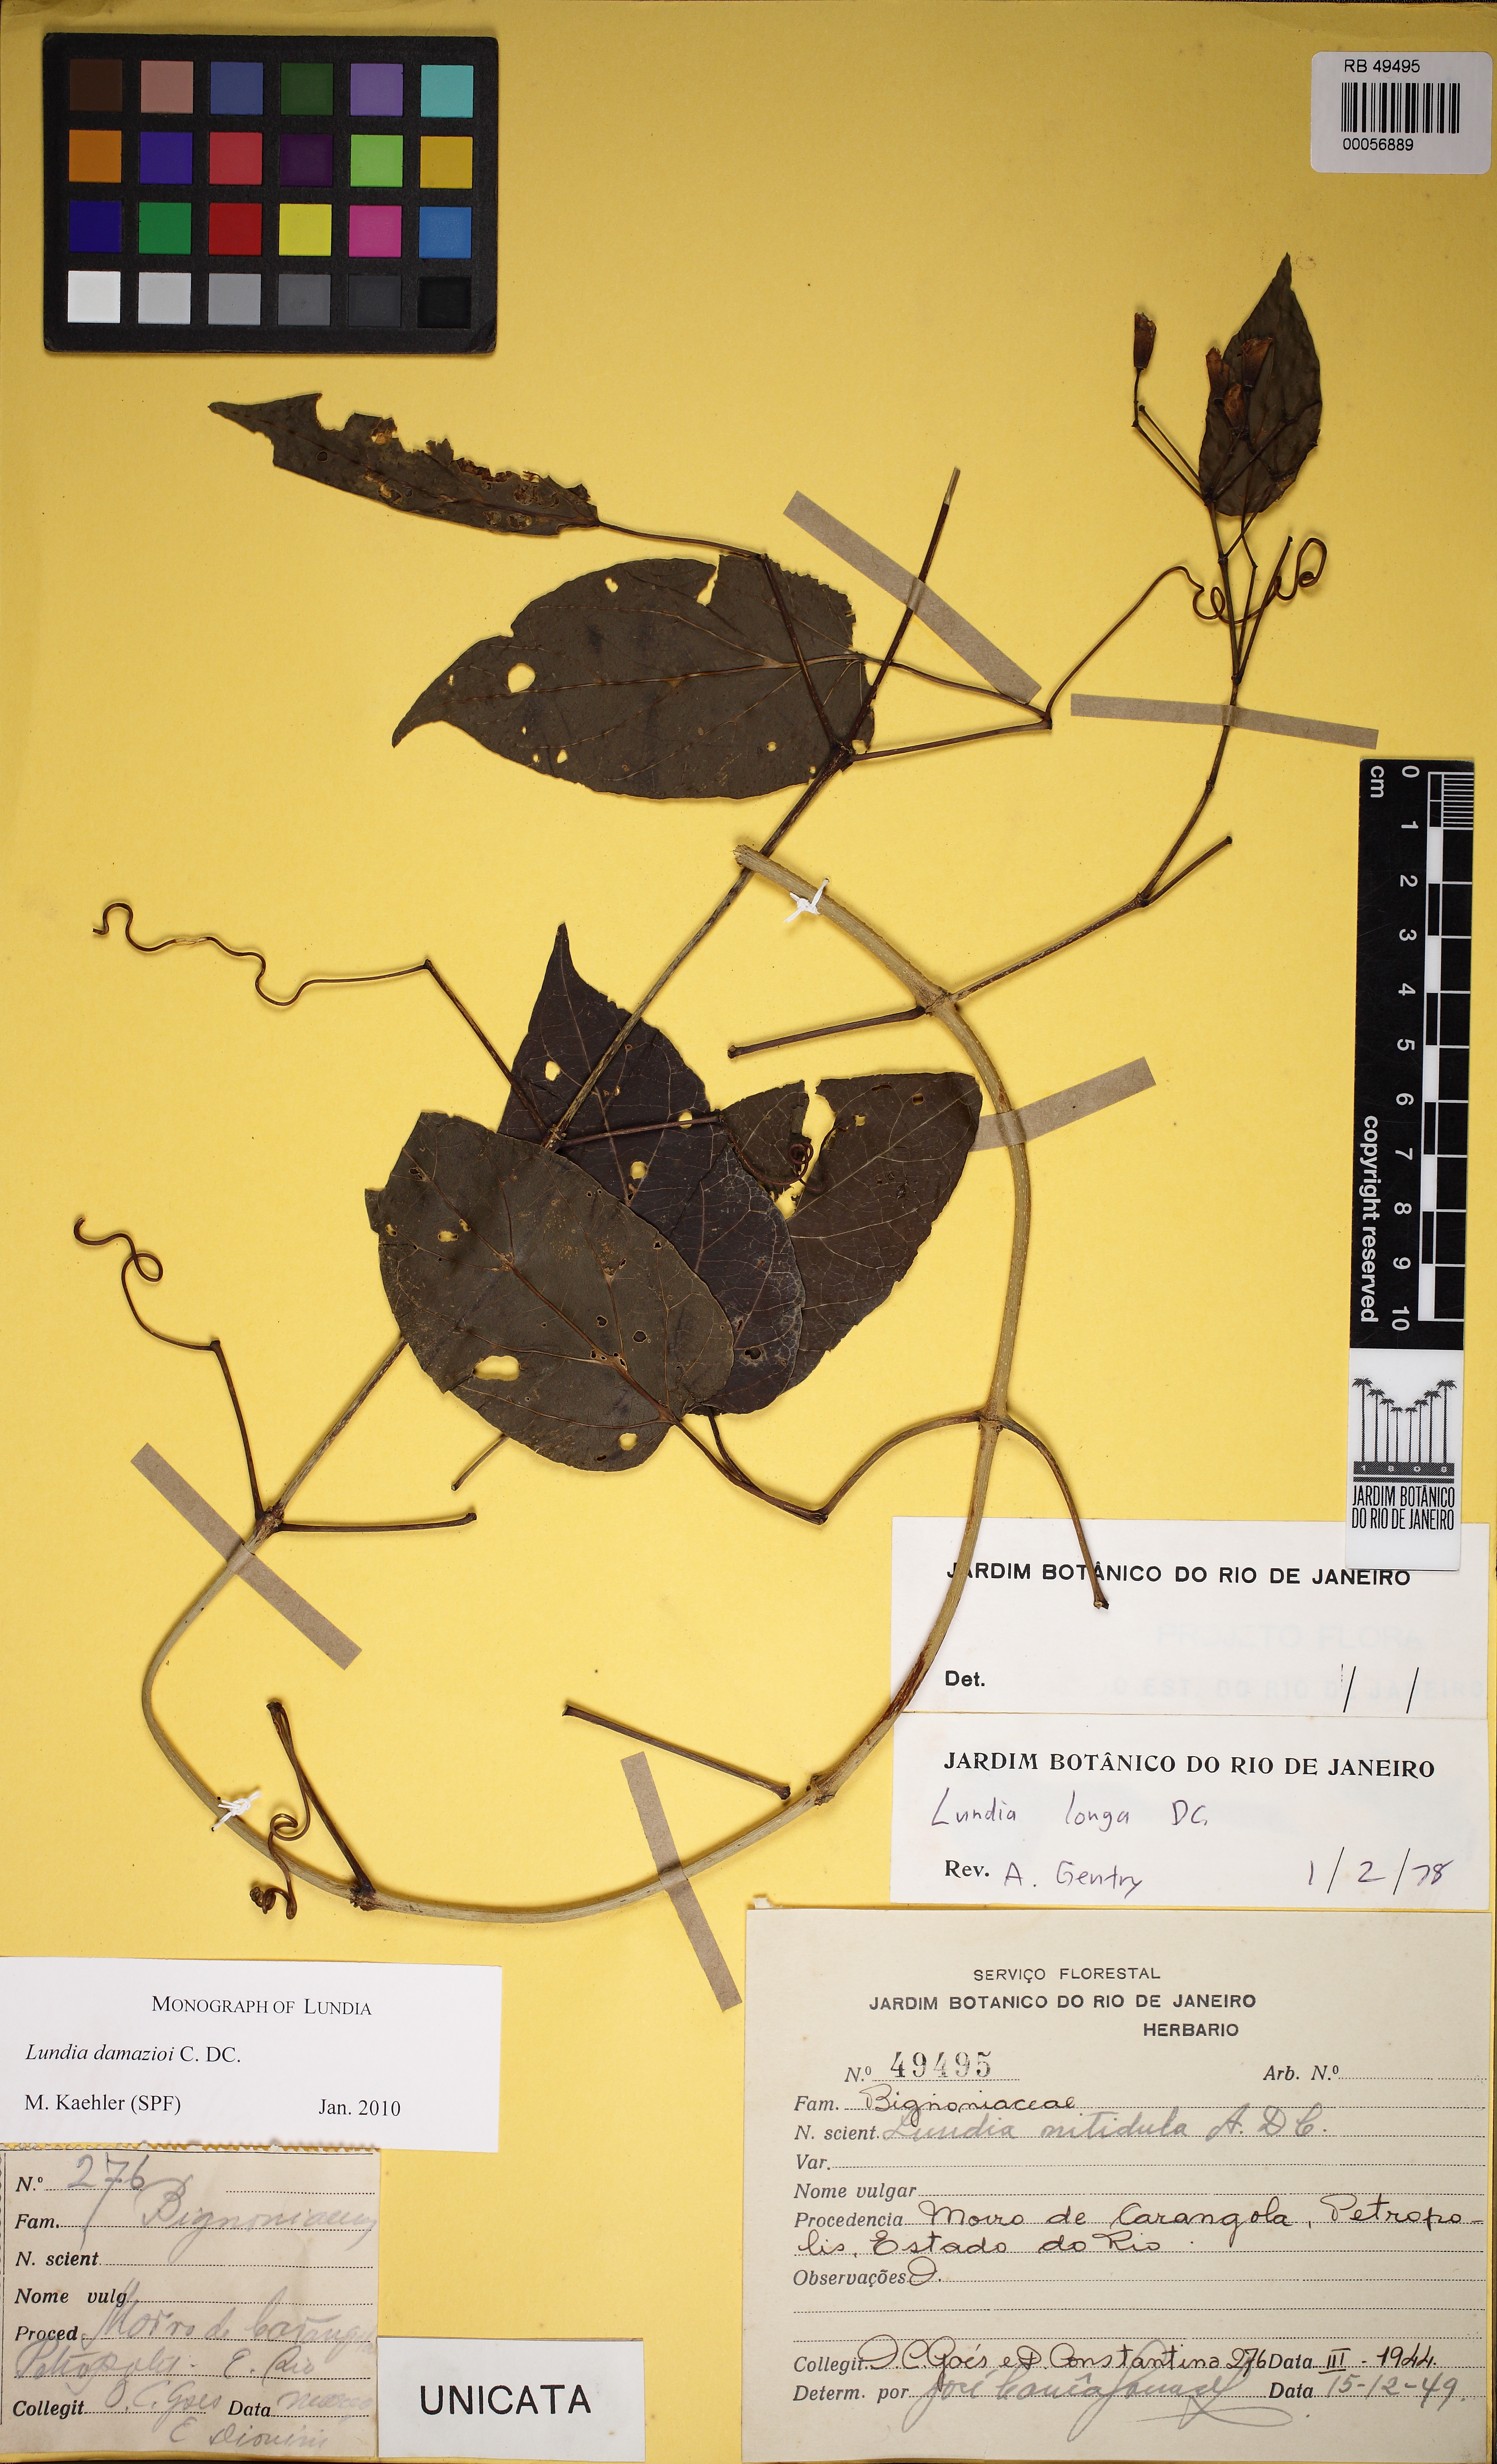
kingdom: Plantae
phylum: Tracheophyta
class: Magnoliopsida
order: Lamiales
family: Bignoniaceae
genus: Lundia
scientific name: Lundia damazioi
